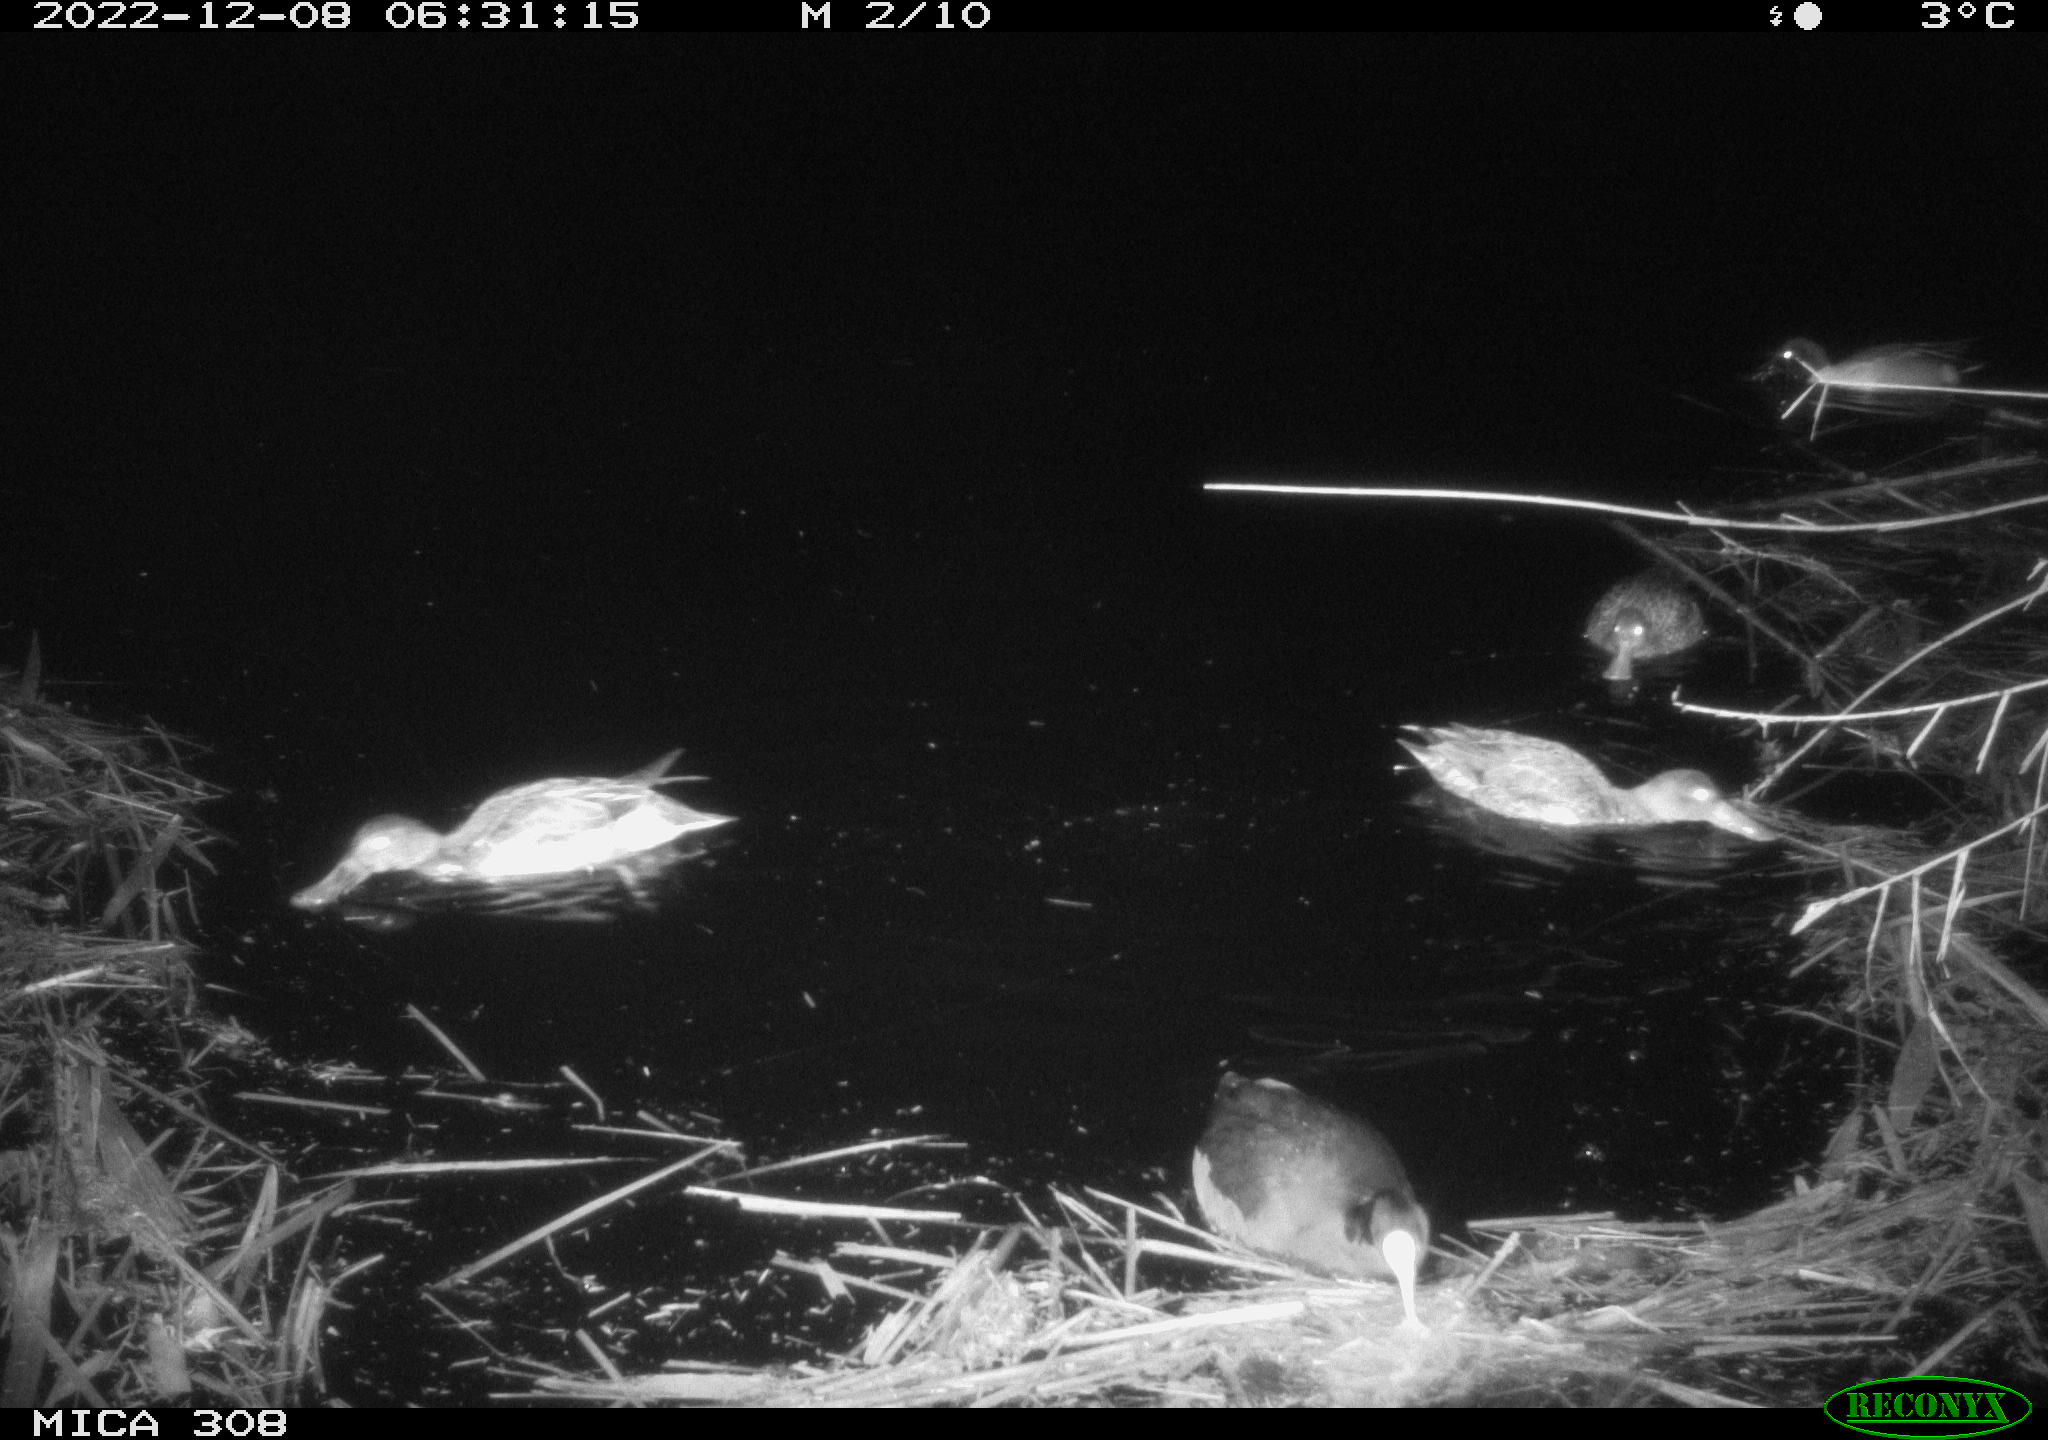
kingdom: Animalia
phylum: Chordata
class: Mammalia
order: Rodentia
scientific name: Rodentia
